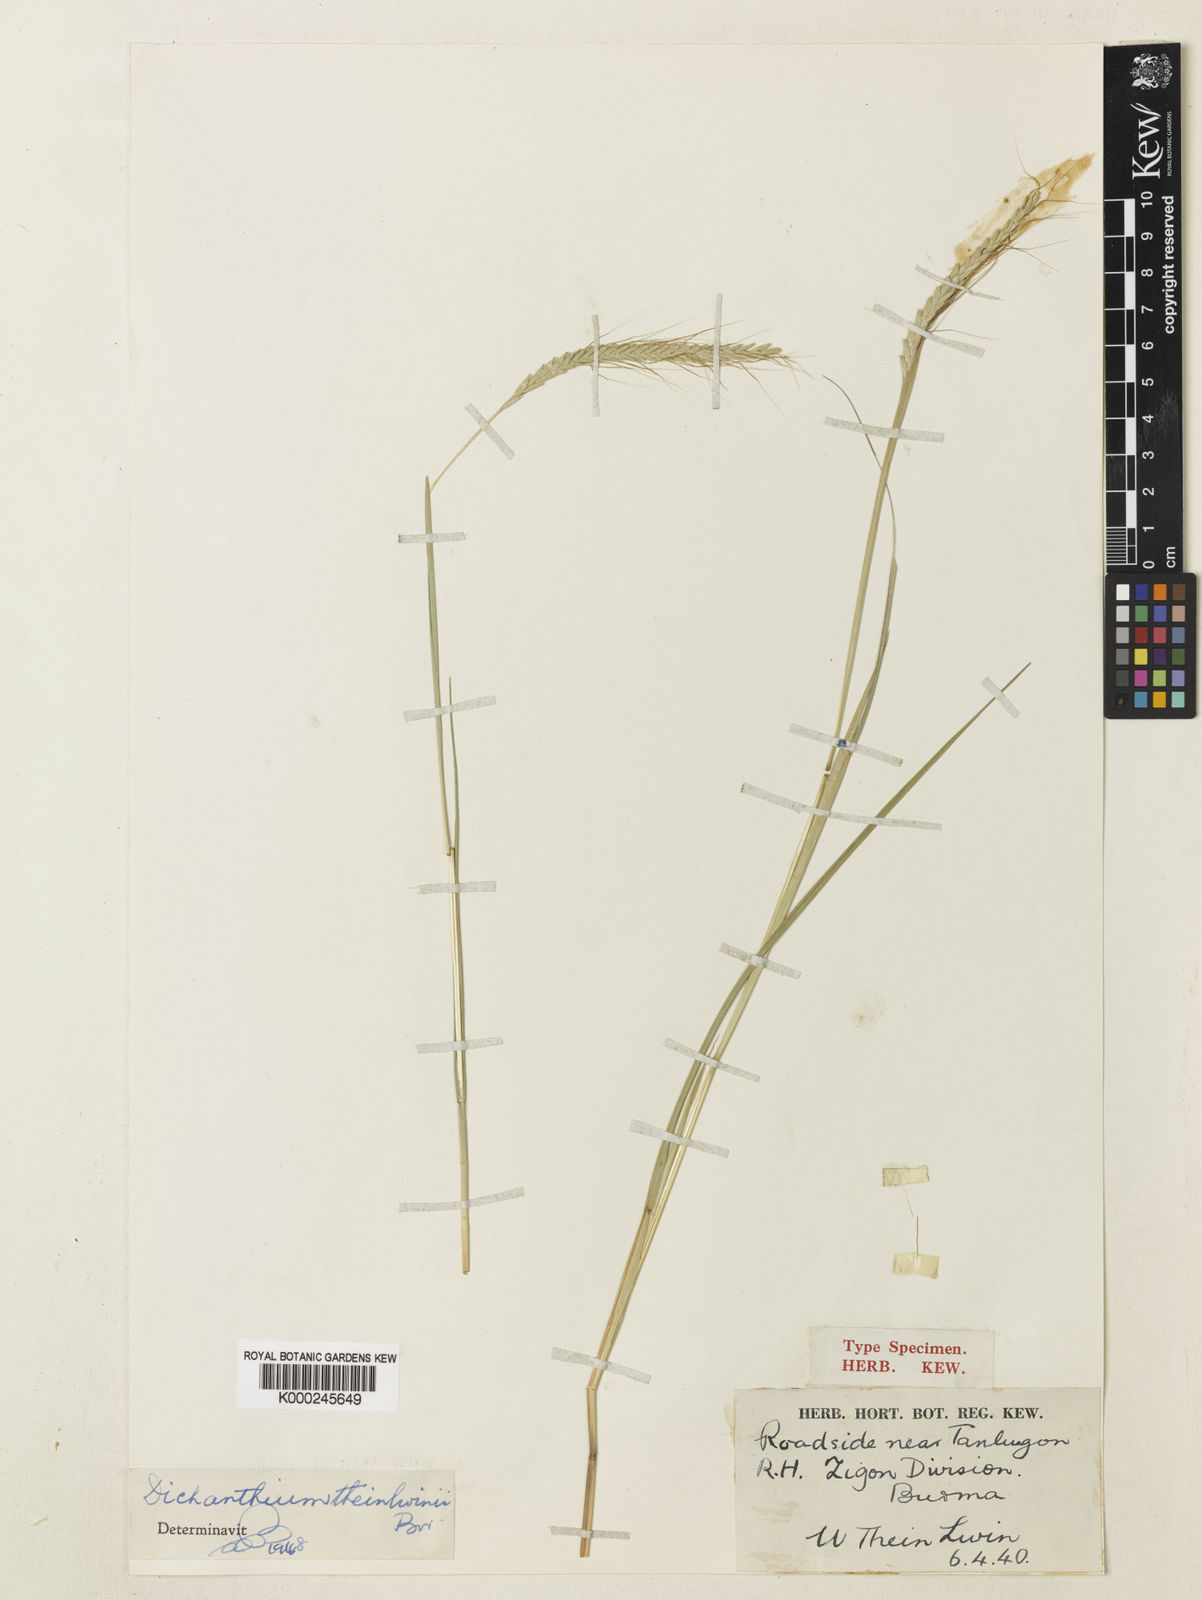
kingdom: Plantae
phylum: Tracheophyta
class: Liliopsida
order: Poales
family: Poaceae
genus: Dichanthium
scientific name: Dichanthium caricosum
